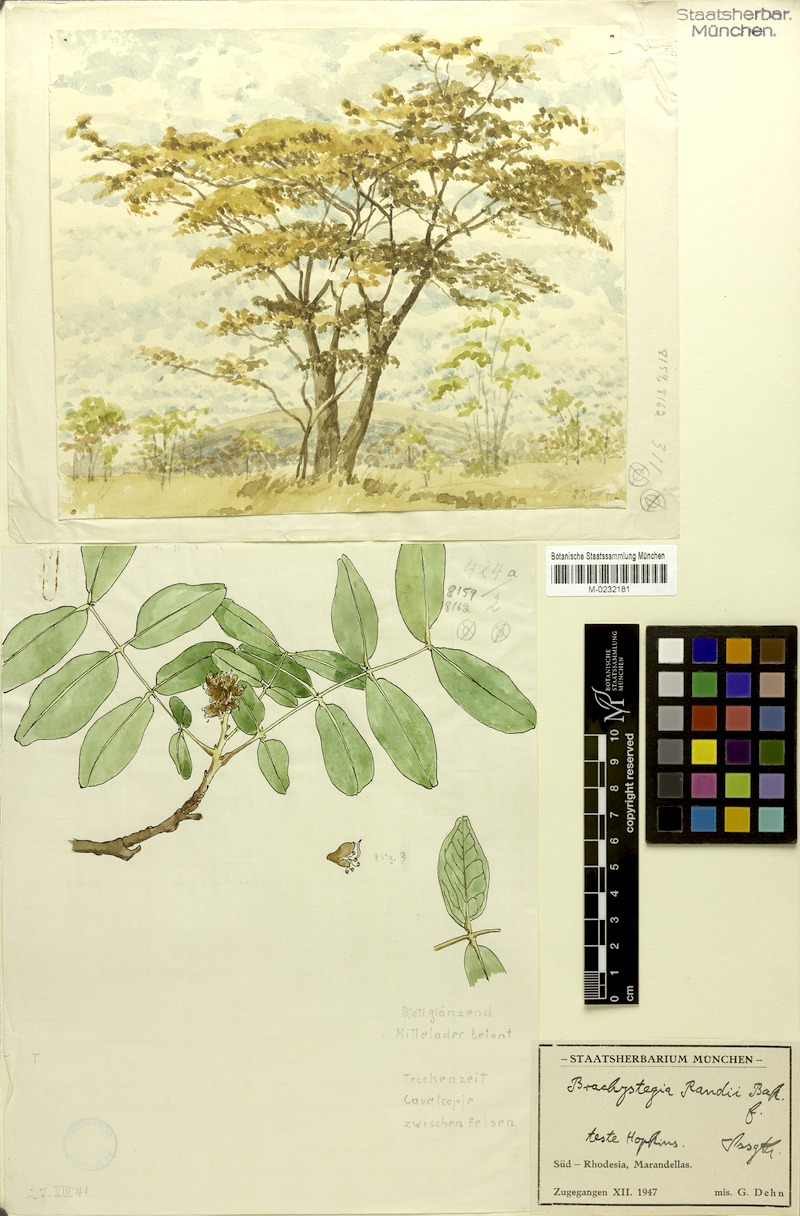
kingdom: Plantae
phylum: Tracheophyta
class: Magnoliopsida
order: Fabales
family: Fabaceae
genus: Brachystegia
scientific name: Brachystegia spiciformis
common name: Zebrawood
